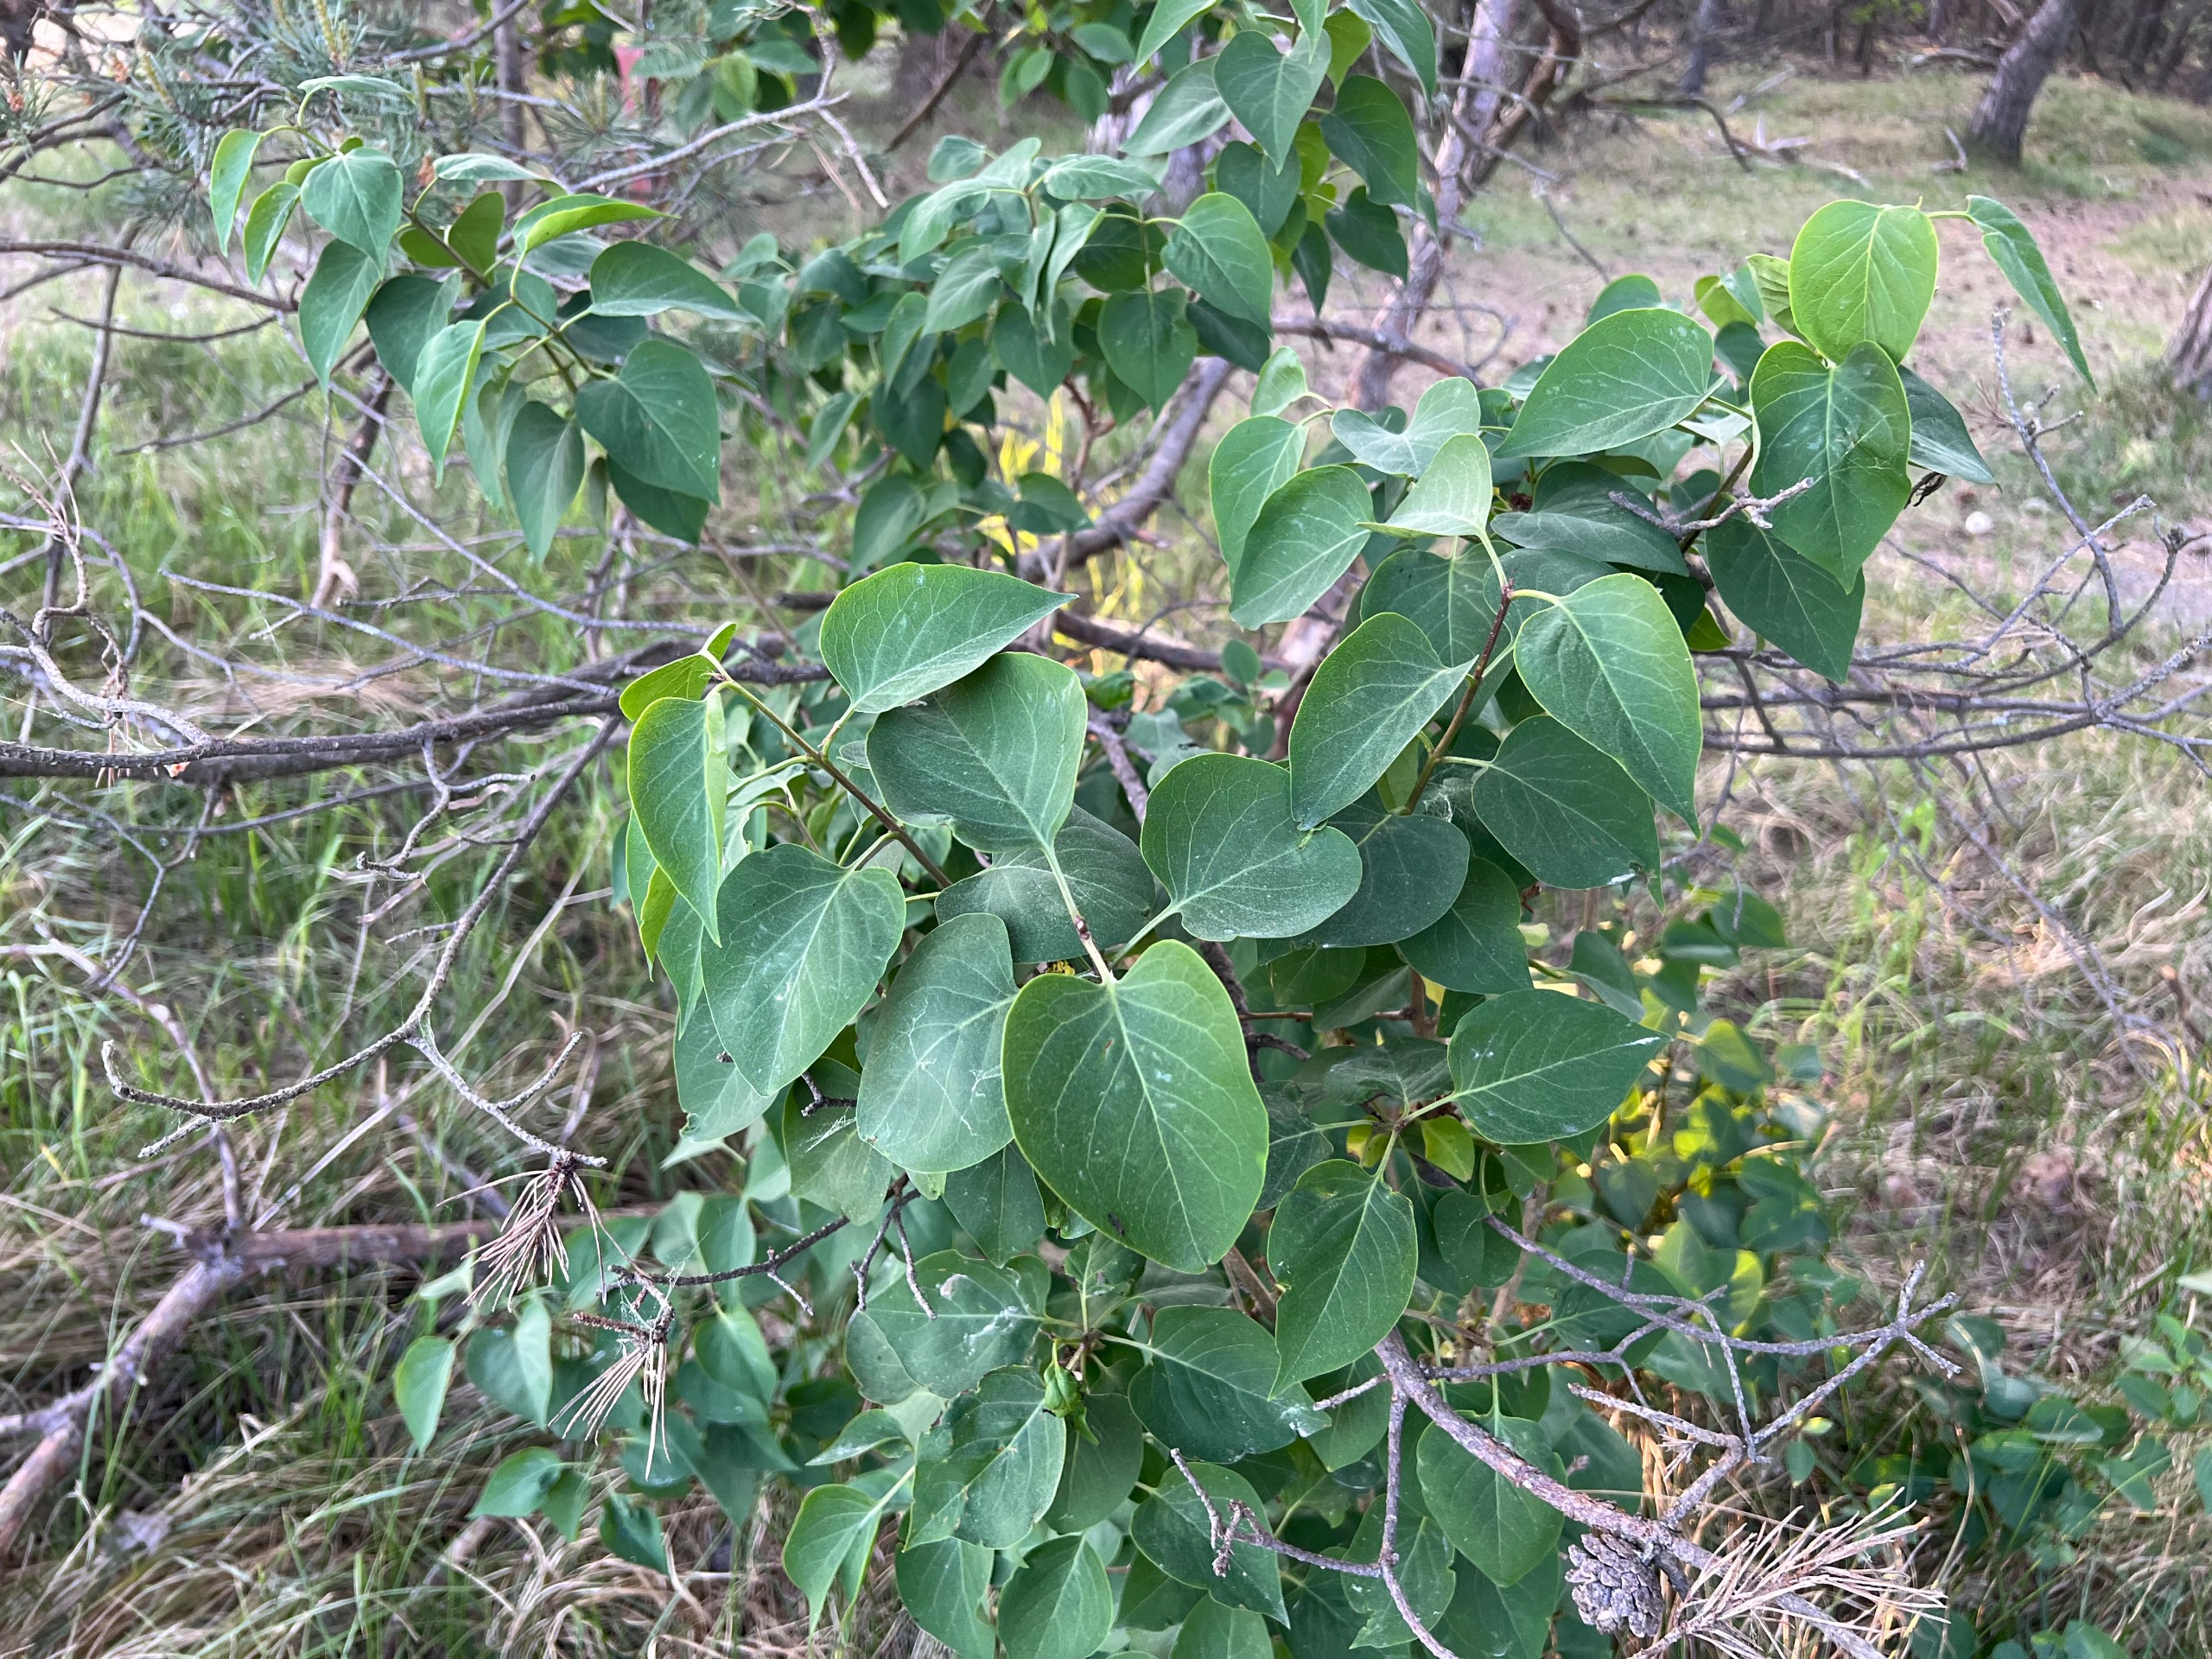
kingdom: Plantae
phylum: Tracheophyta
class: Magnoliopsida
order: Lamiales
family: Oleaceae
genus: Syringa
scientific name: Syringa vulgaris
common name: Syren
